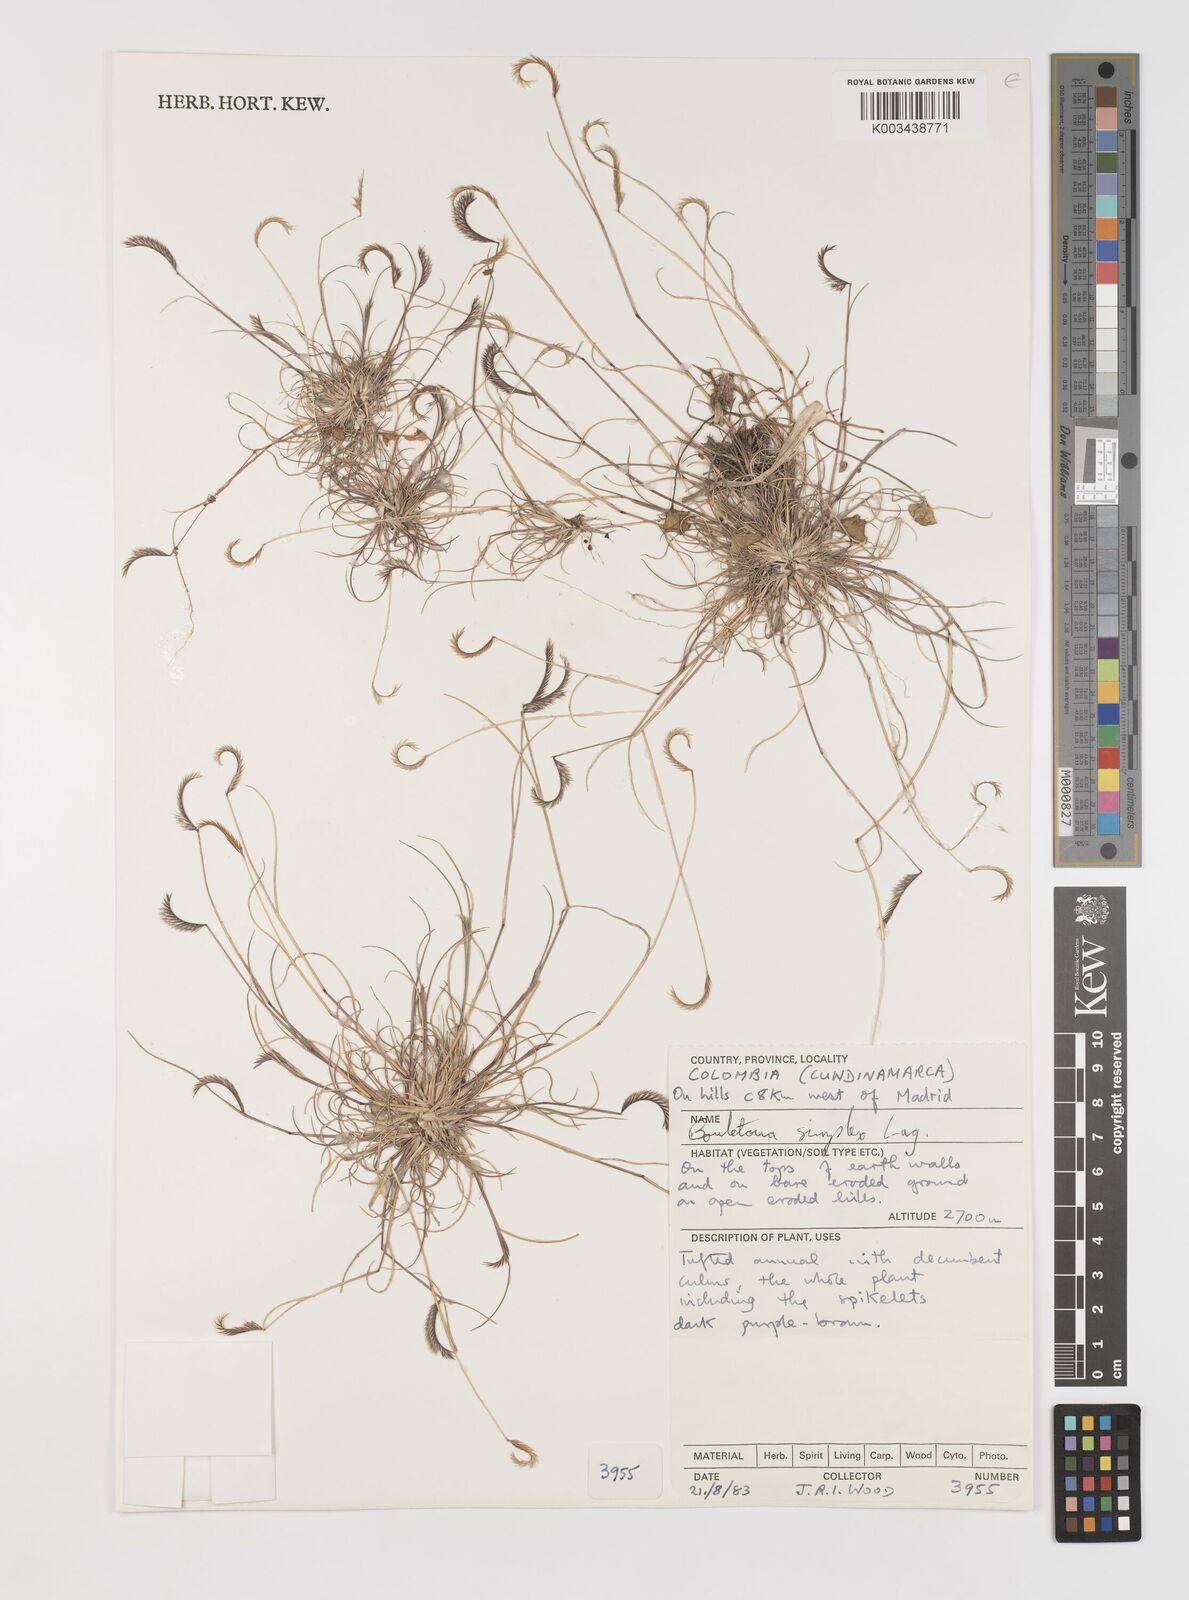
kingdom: Plantae
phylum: Tracheophyta
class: Liliopsida
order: Poales
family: Poaceae
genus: Bouteloua
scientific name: Bouteloua simplex
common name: Mat grama
